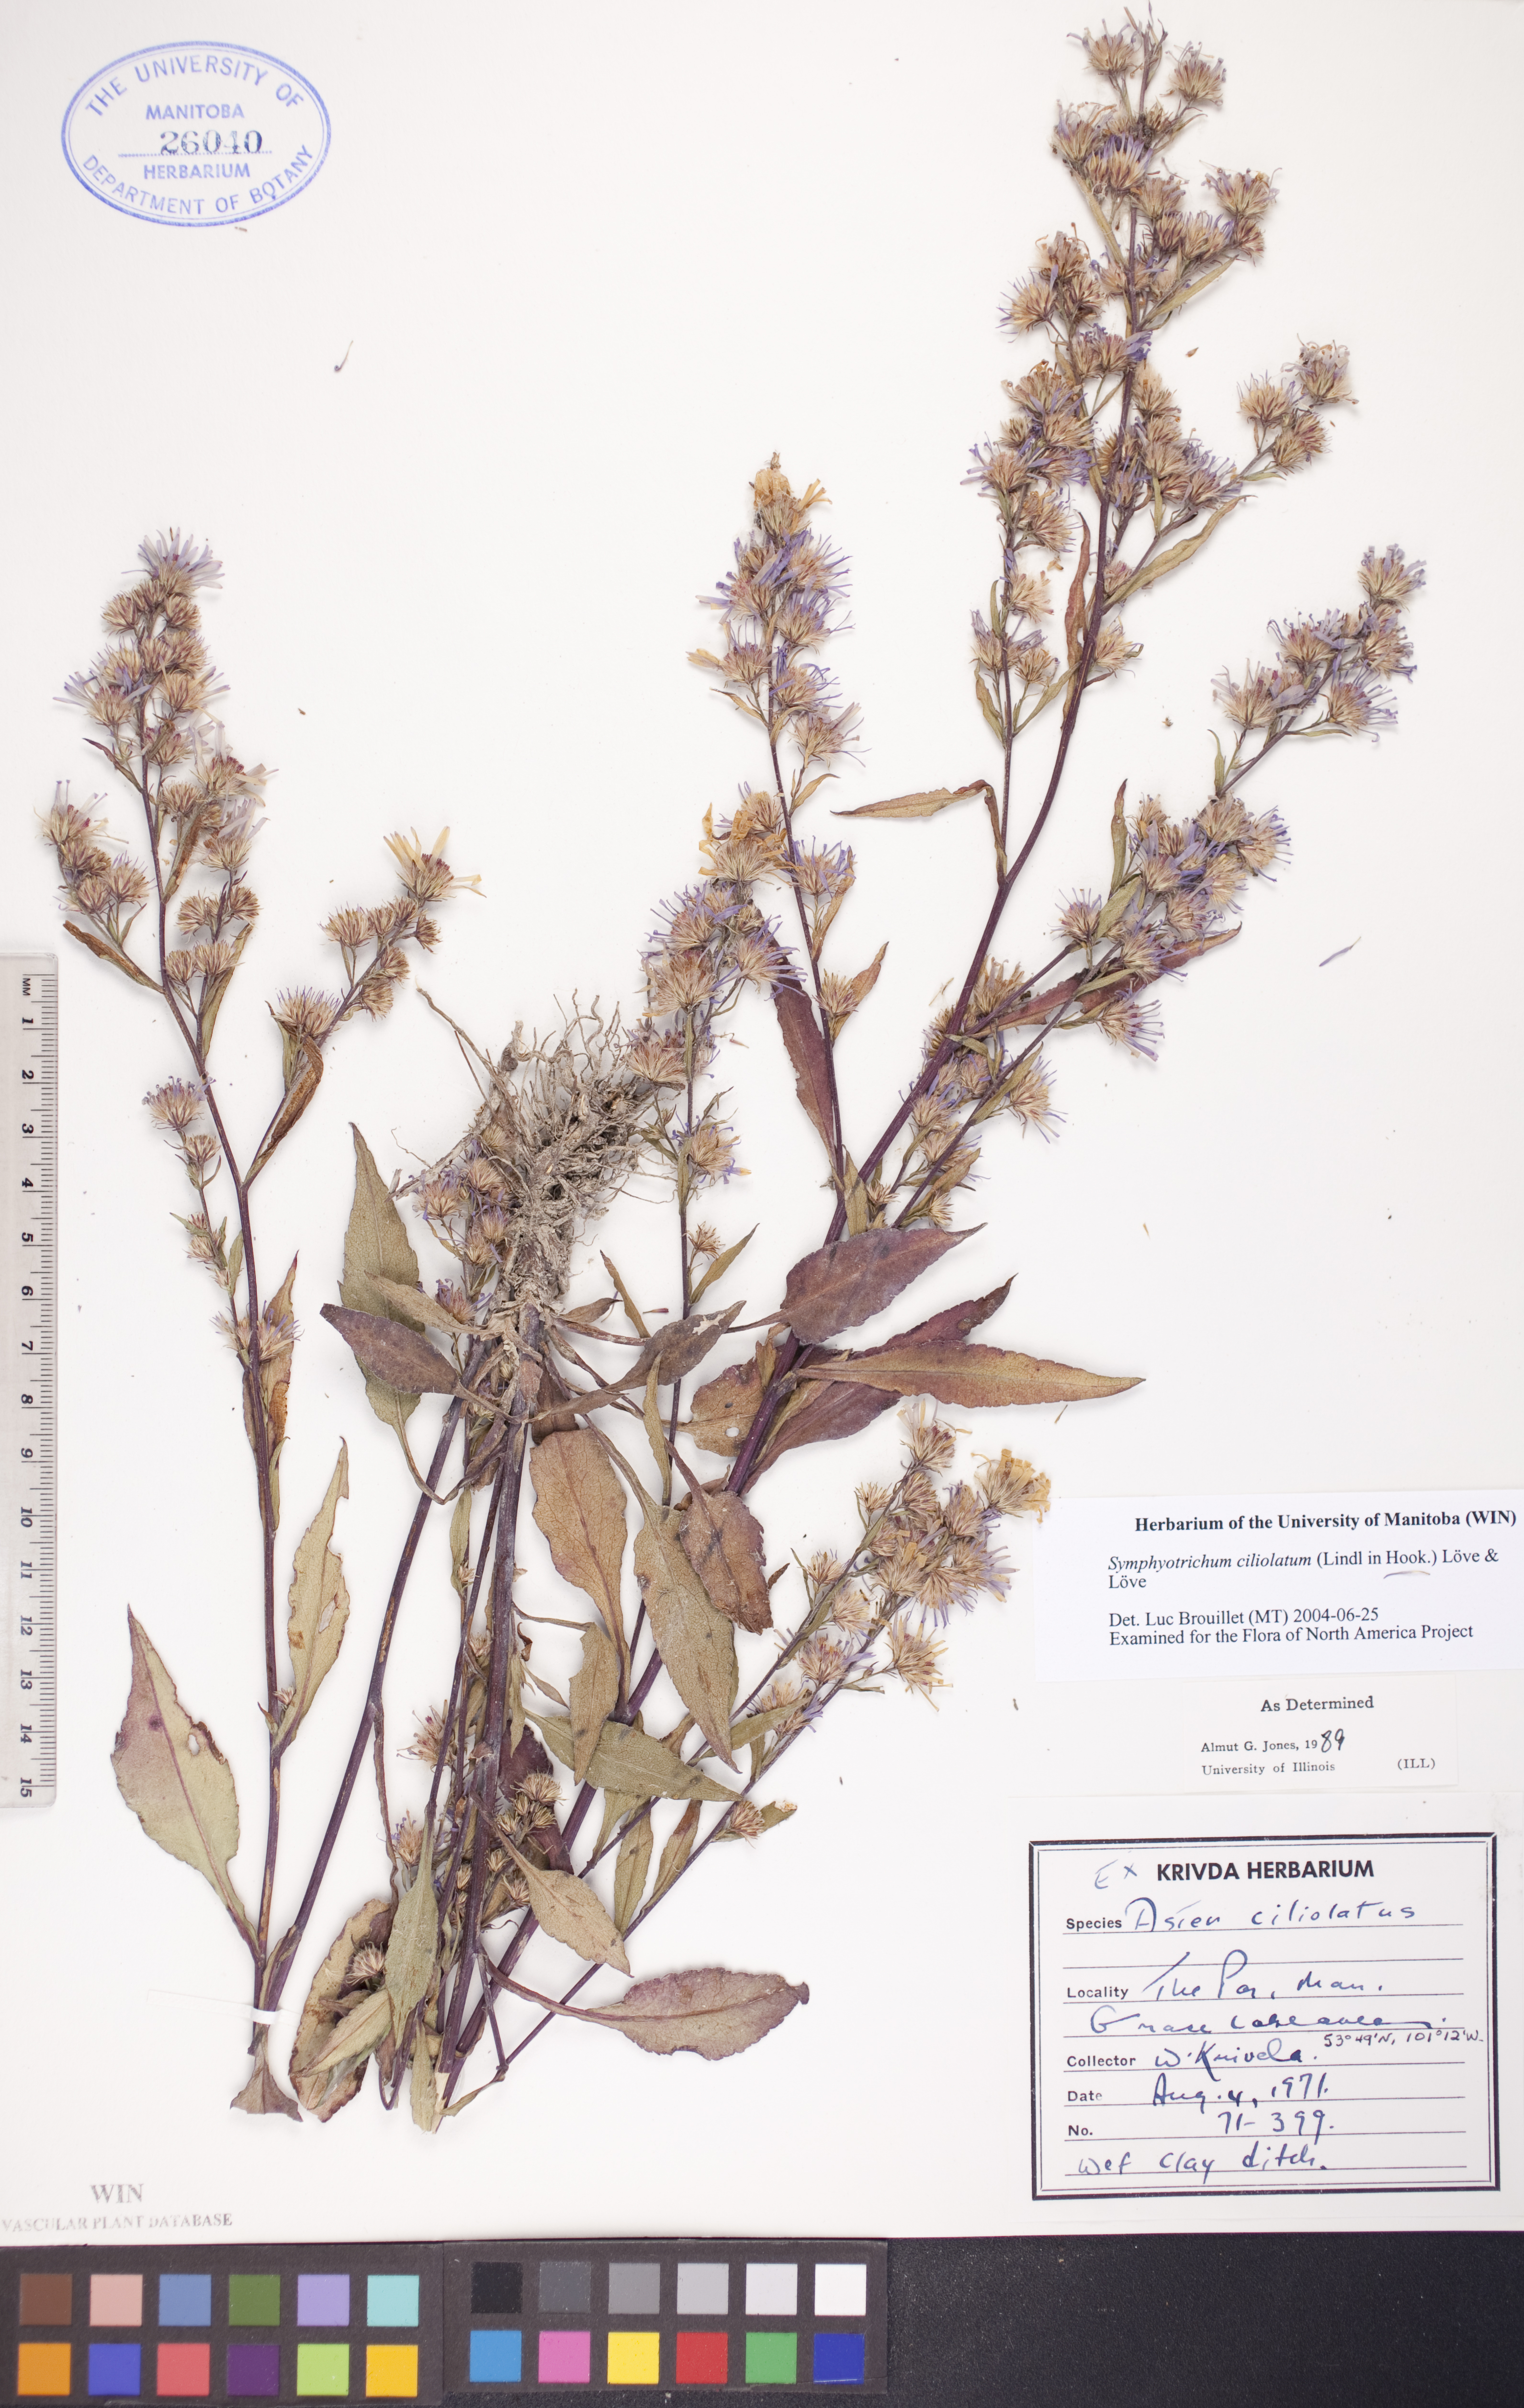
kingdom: Plantae
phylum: Tracheophyta
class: Magnoliopsida
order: Asterales
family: Asteraceae
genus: Symphyotrichum
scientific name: Symphyotrichum ciliolatum
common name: Fringed blue aster
